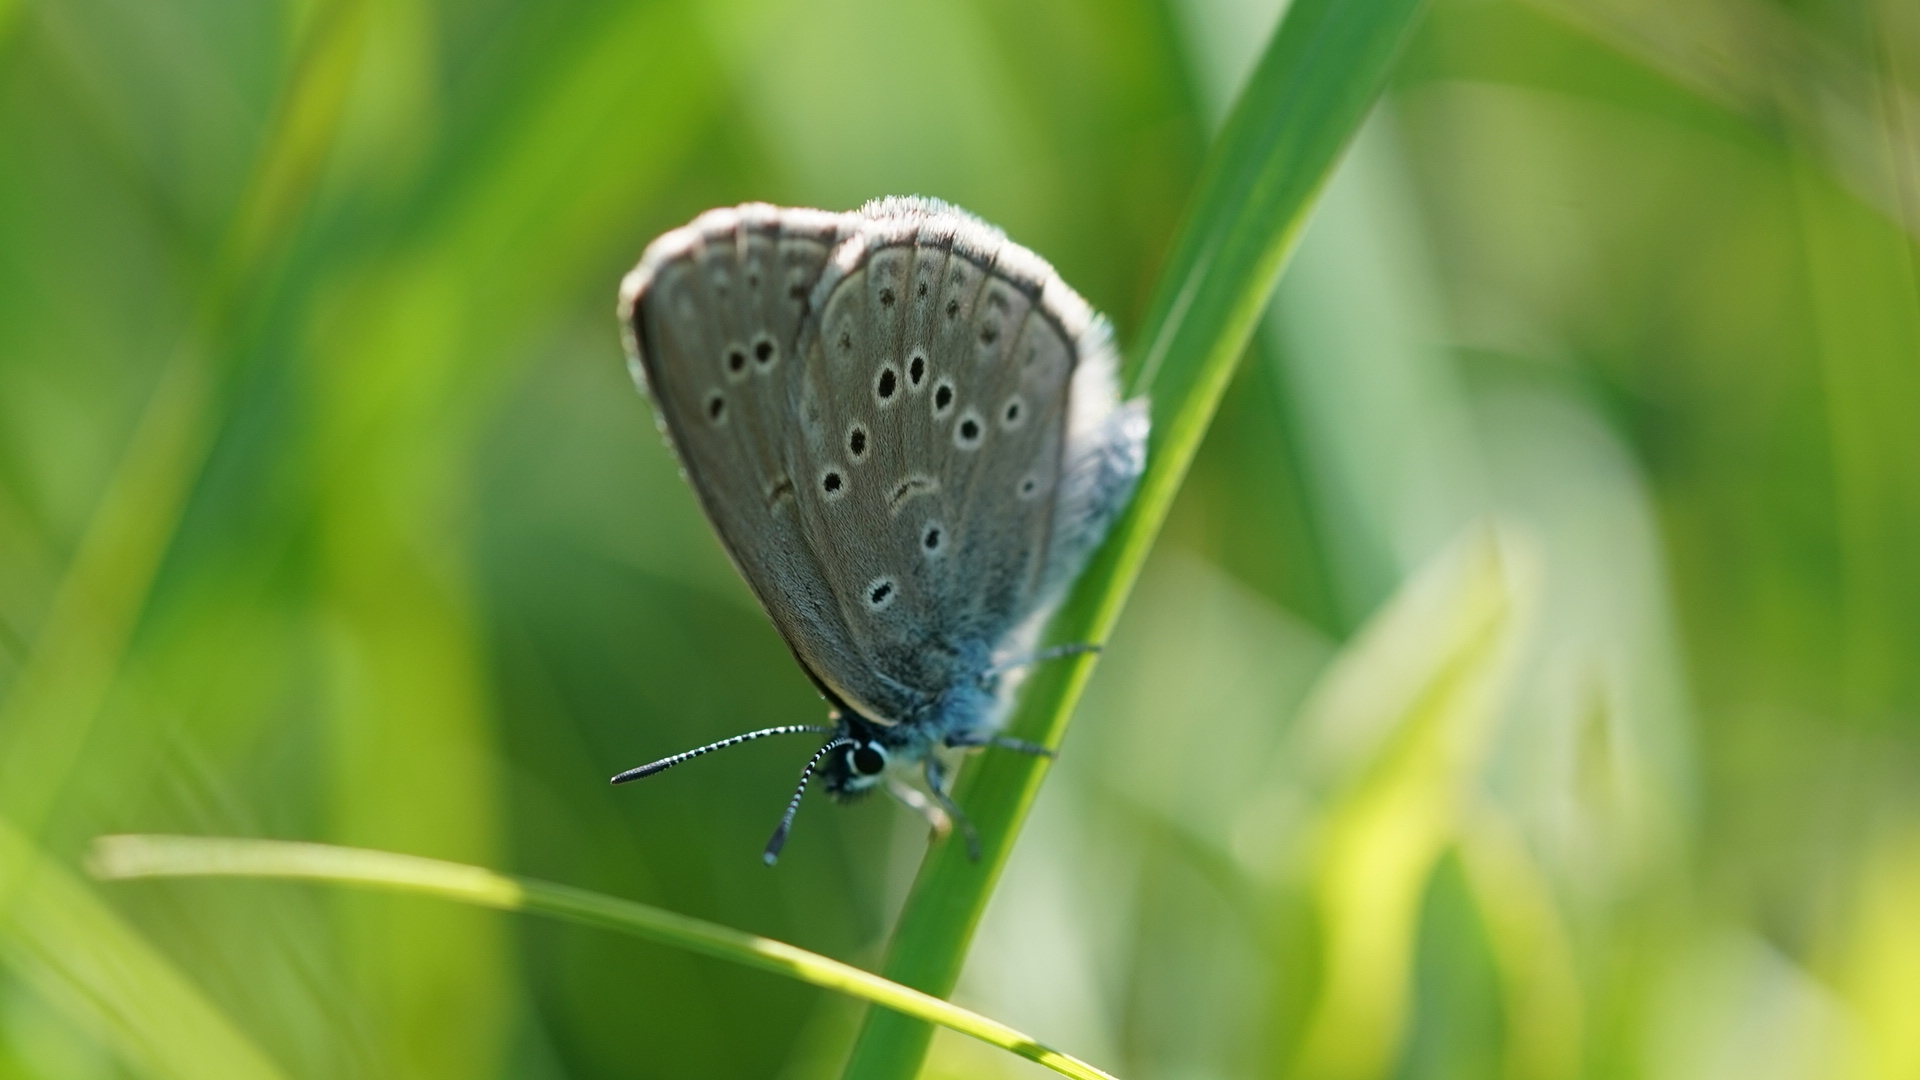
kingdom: Animalia
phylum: Arthropoda
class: Insecta
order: Lepidoptera
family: Lycaenidae
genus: Maculinea
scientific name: Maculinea alcon
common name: Ensianblåfugl
